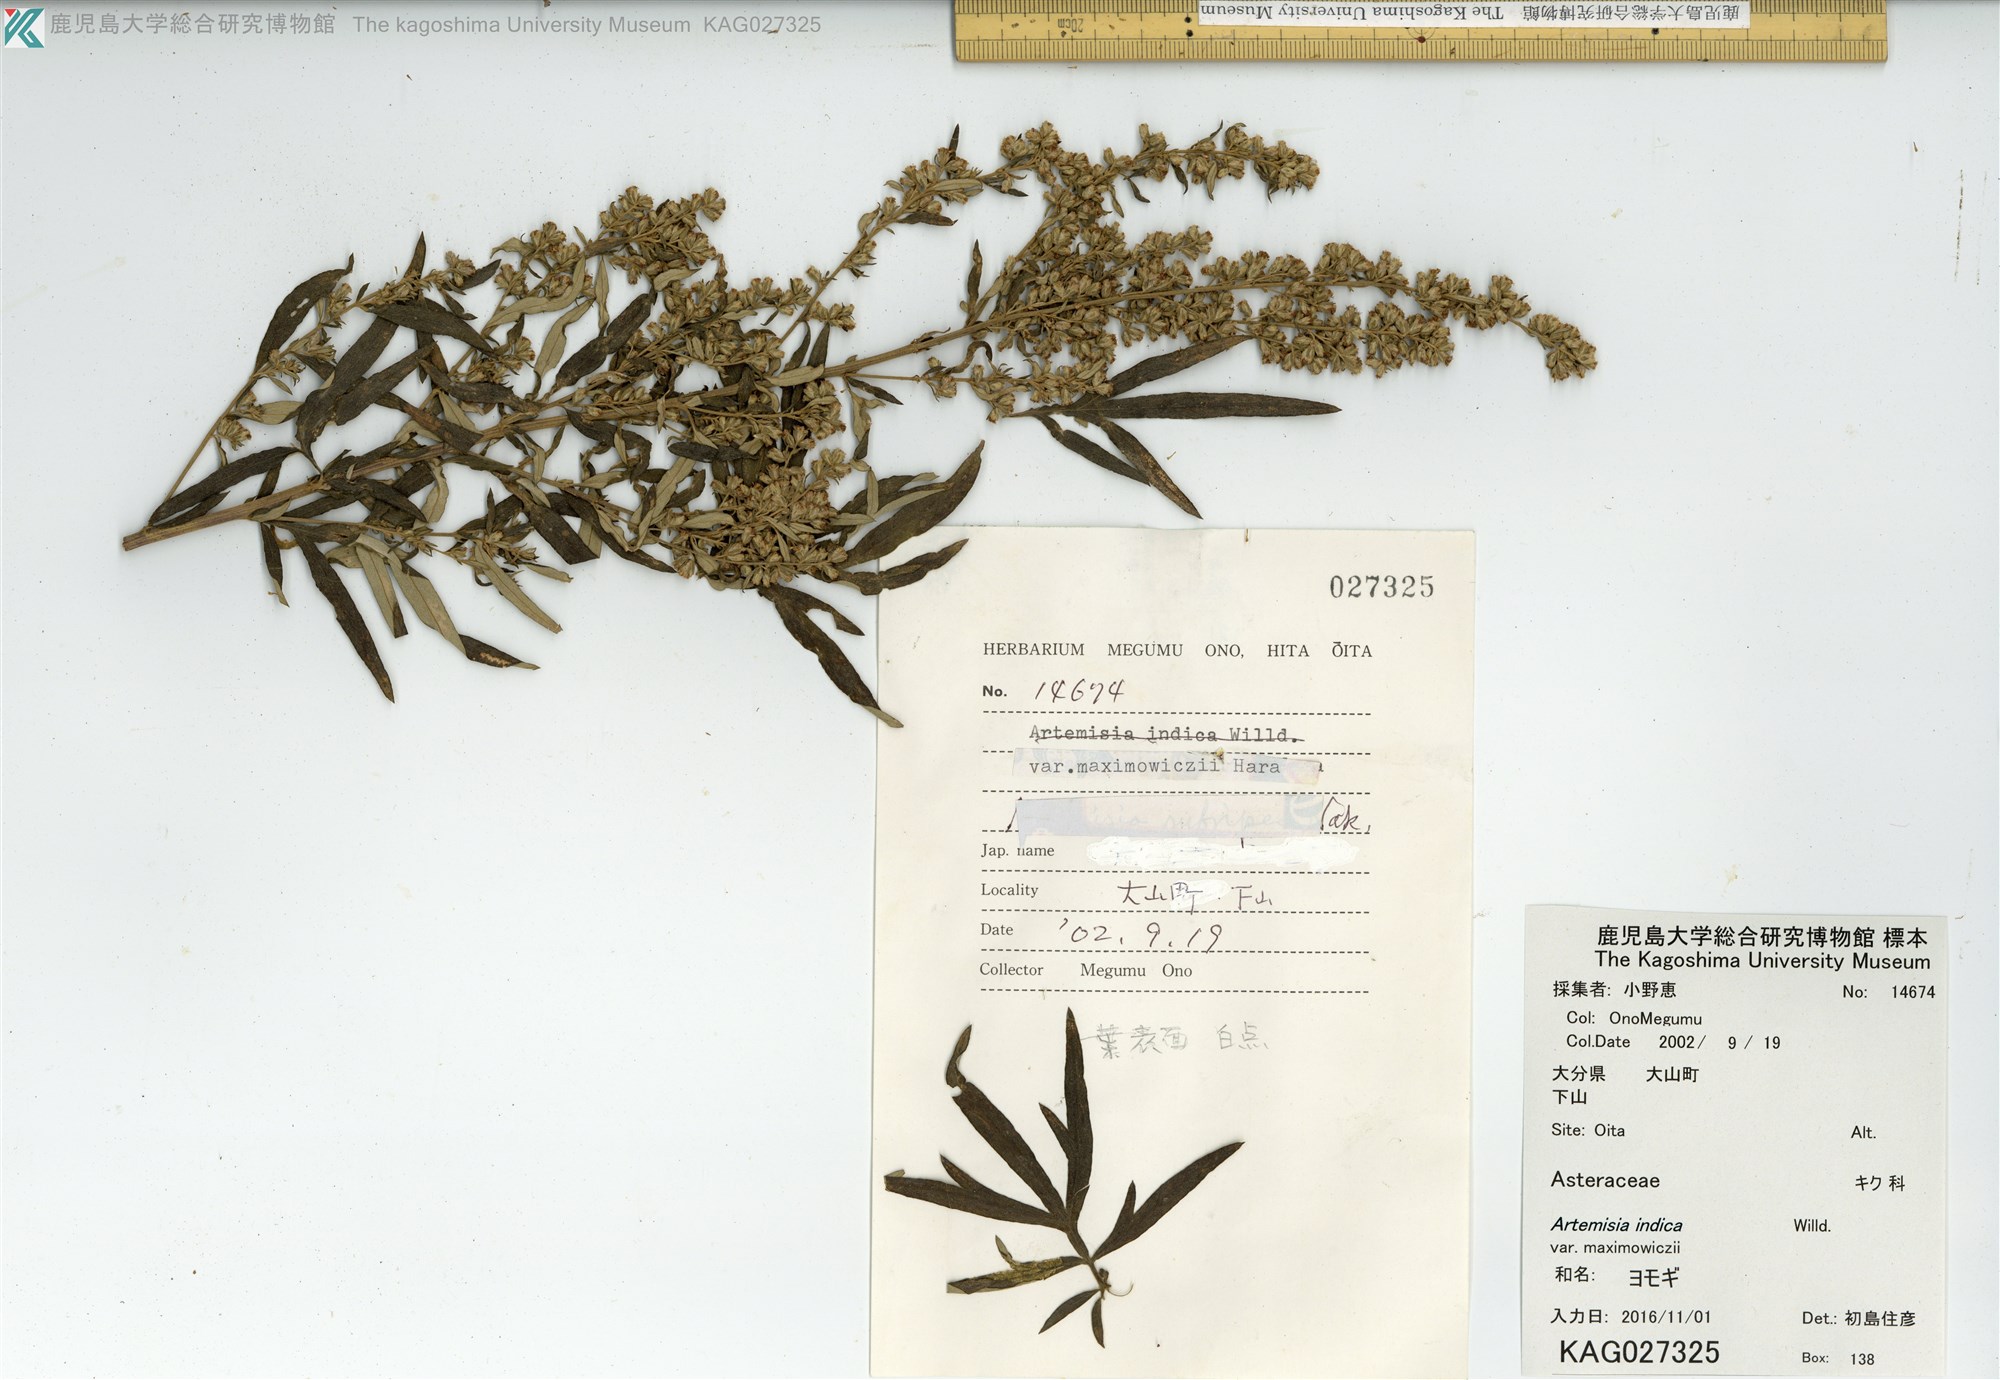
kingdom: Plantae
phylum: Tracheophyta
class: Magnoliopsida
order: Asterales
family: Asteraceae
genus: Artemisia
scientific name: Artemisia princeps
